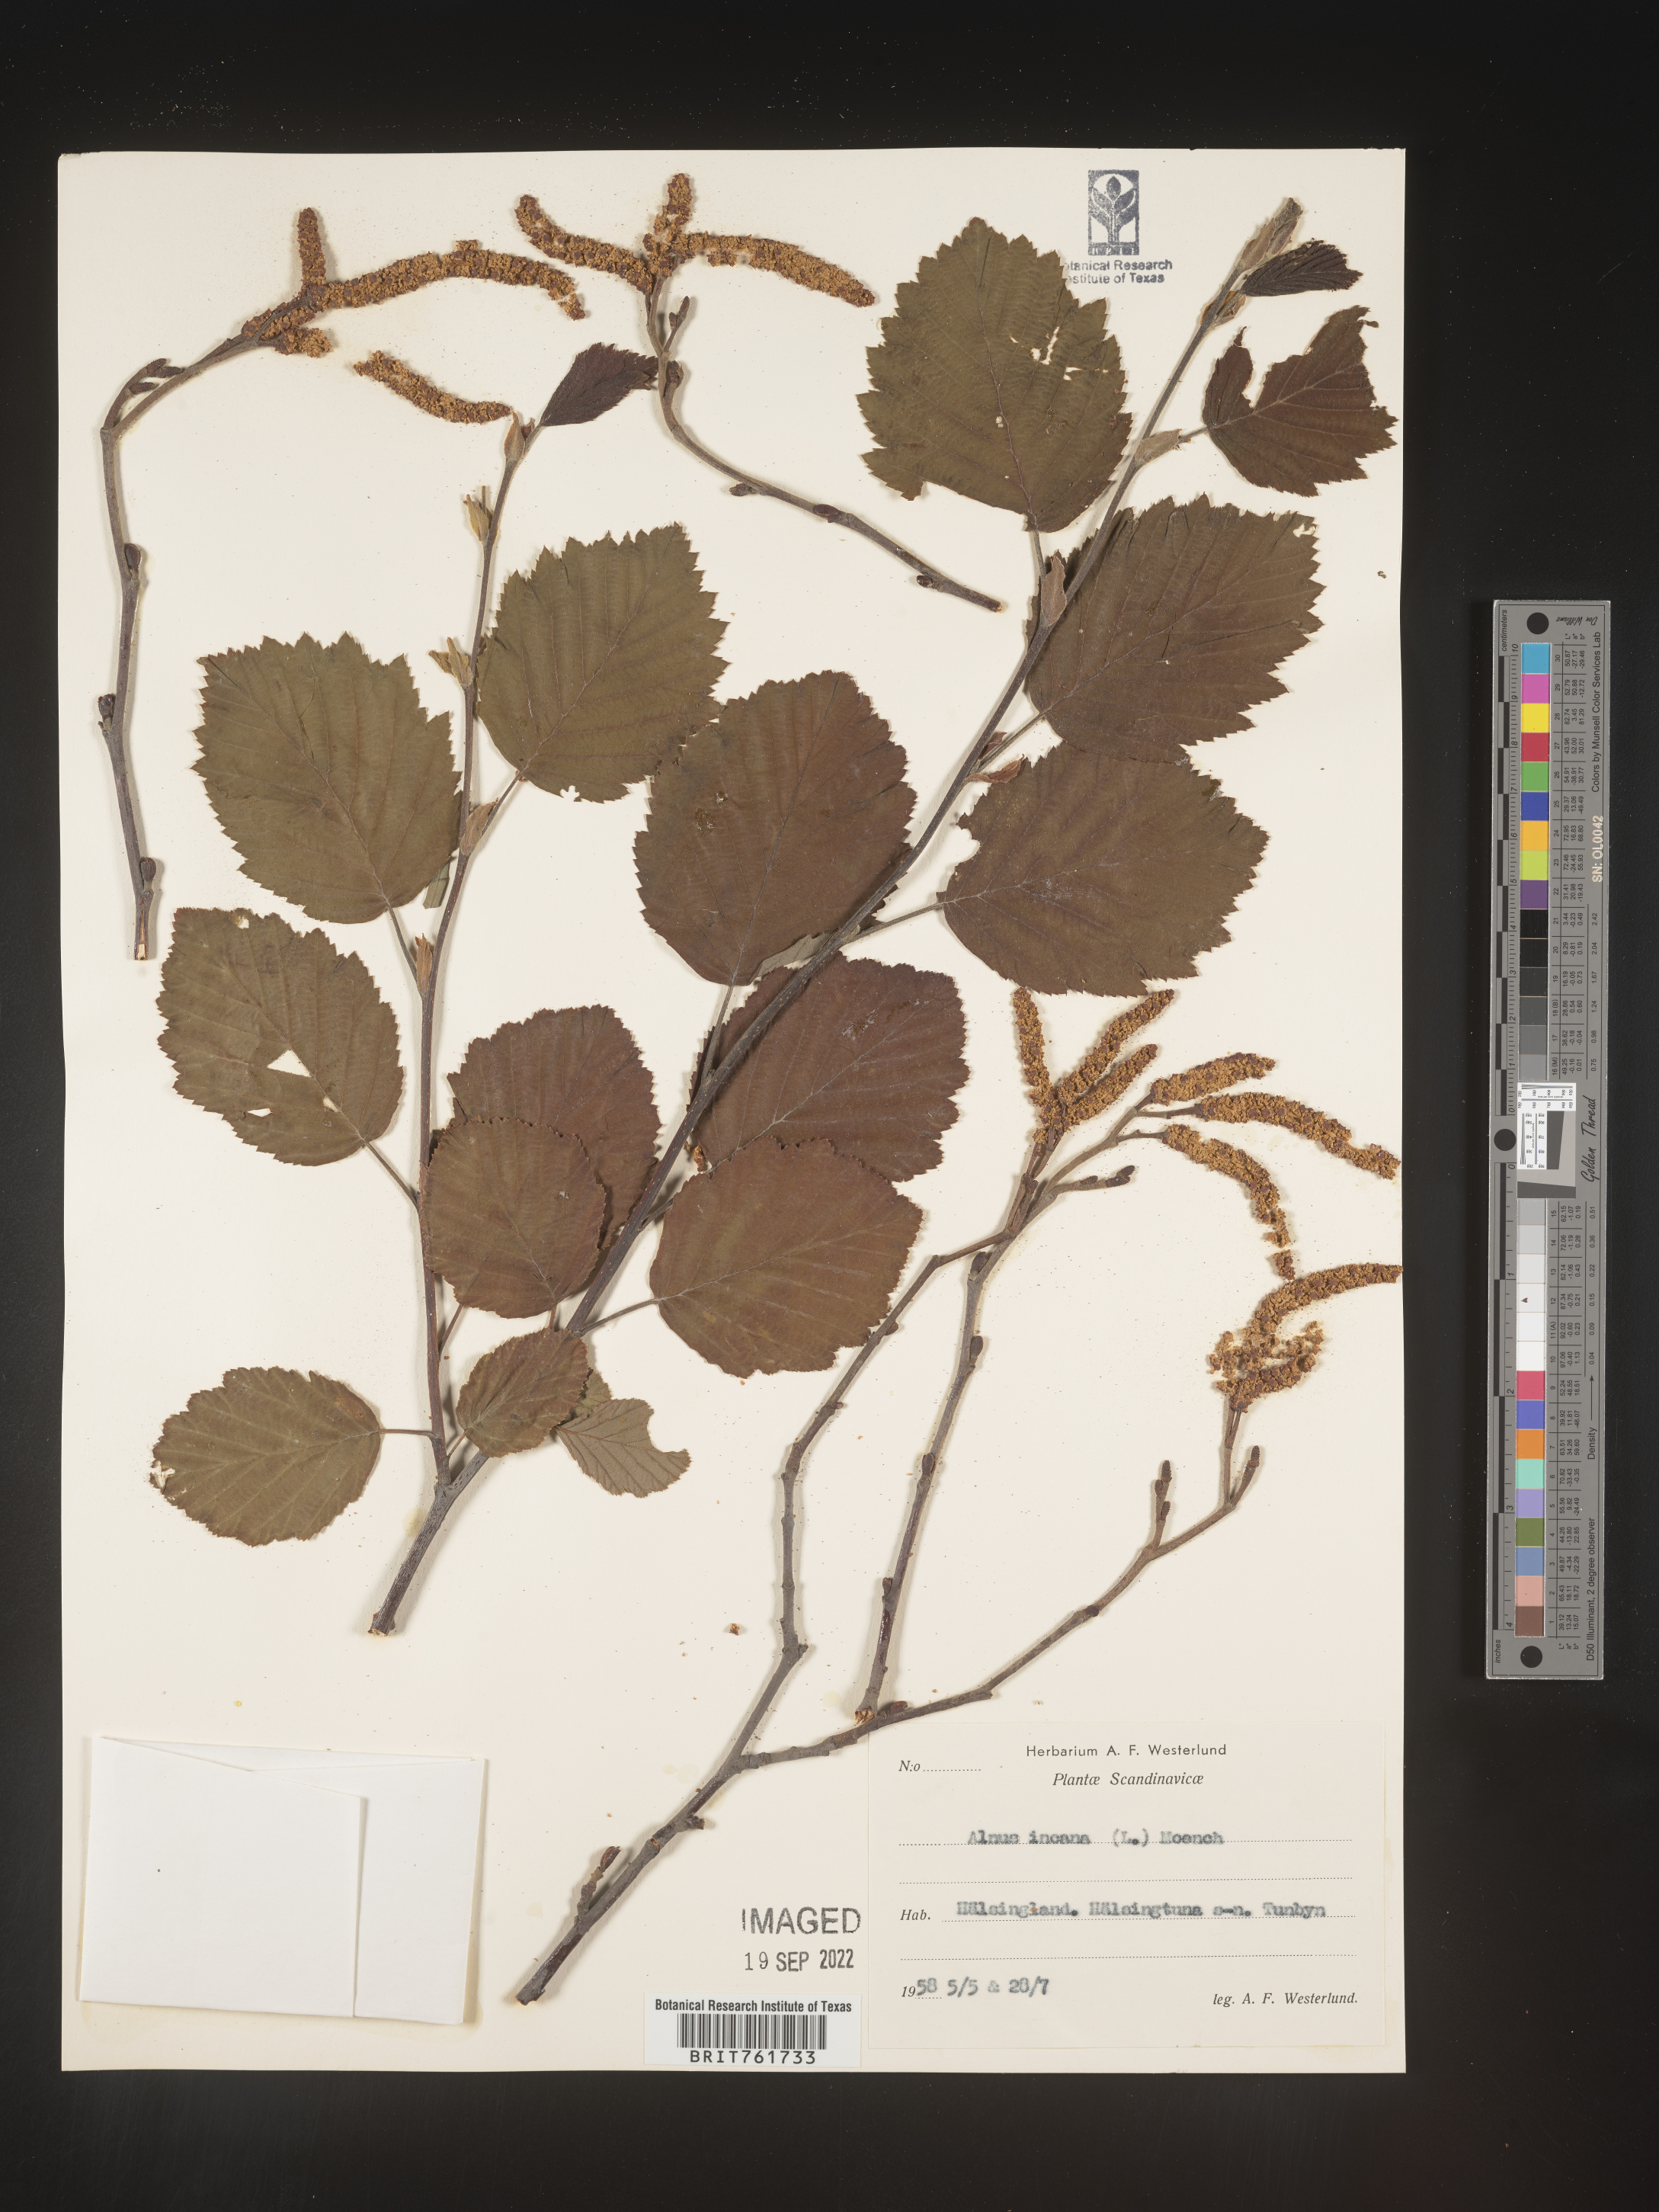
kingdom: Plantae
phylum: Tracheophyta
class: Magnoliopsida
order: Fagales
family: Betulaceae
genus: Alnus
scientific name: Alnus
